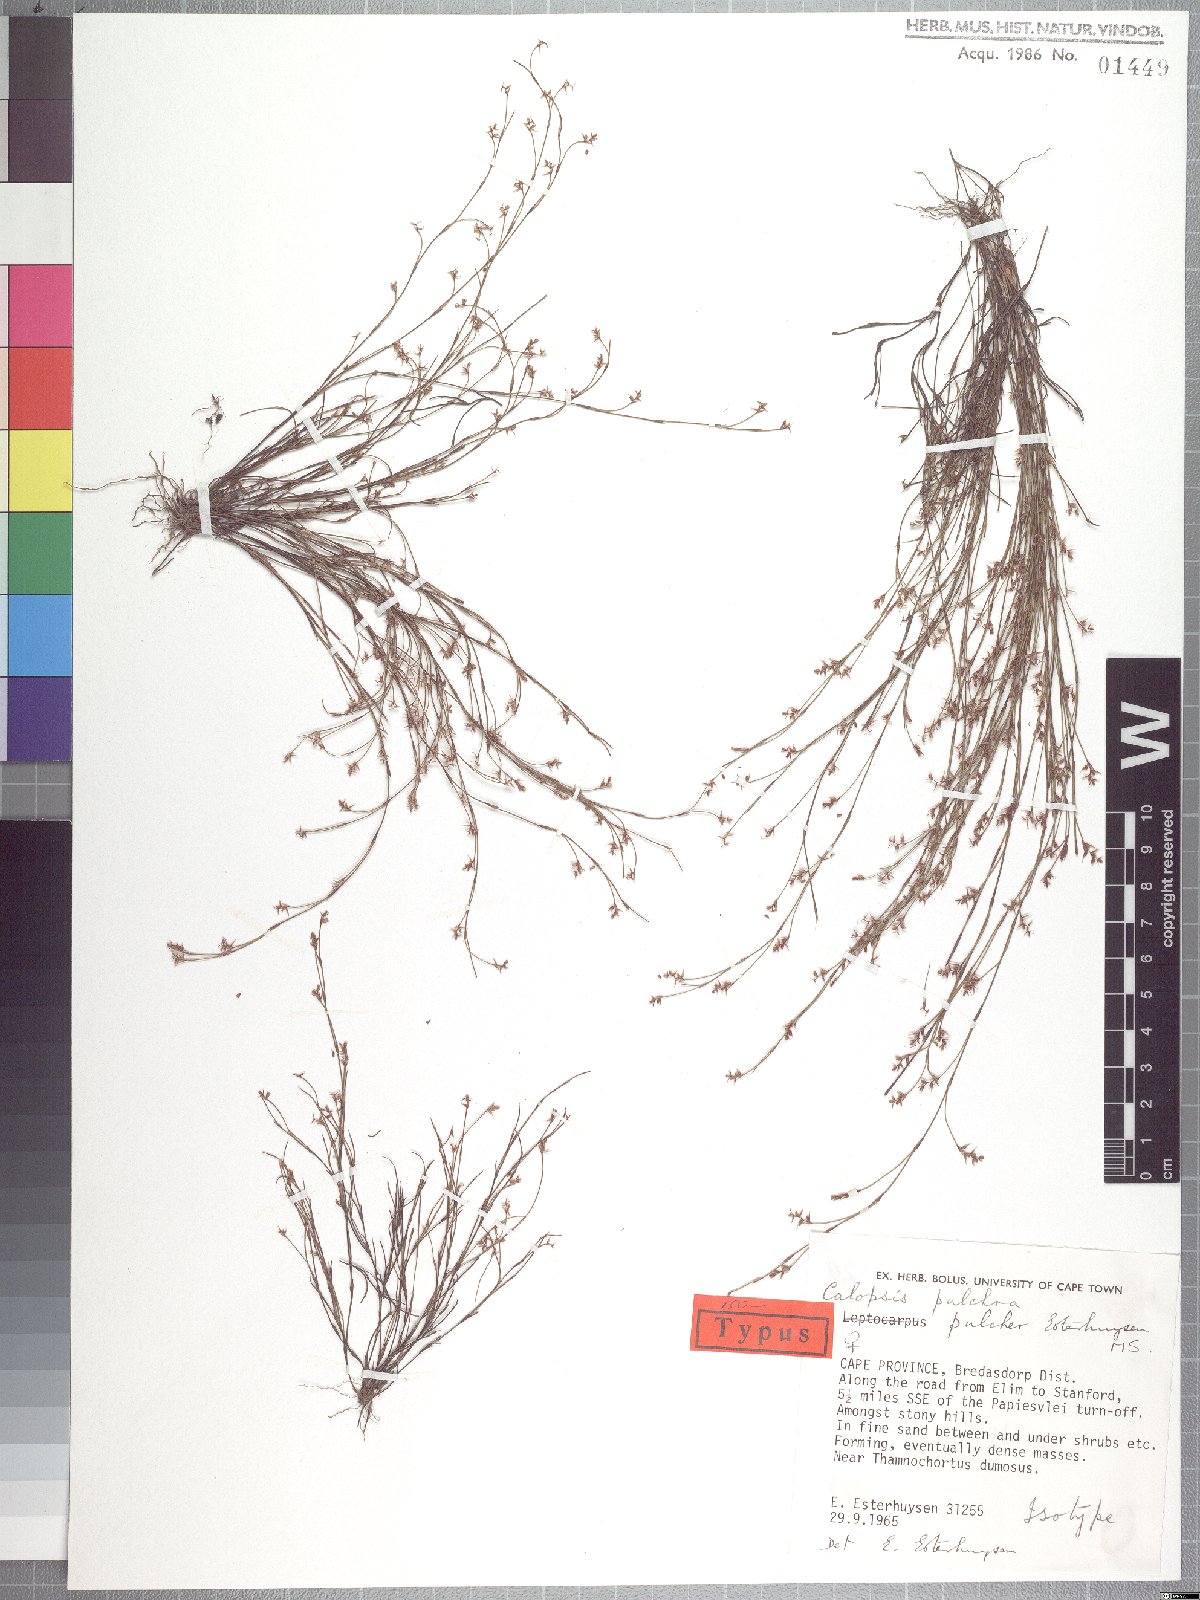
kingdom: Plantae
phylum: Tracheophyta
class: Liliopsida
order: Poales
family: Restionaceae
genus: Restio
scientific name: Restio pulcher
